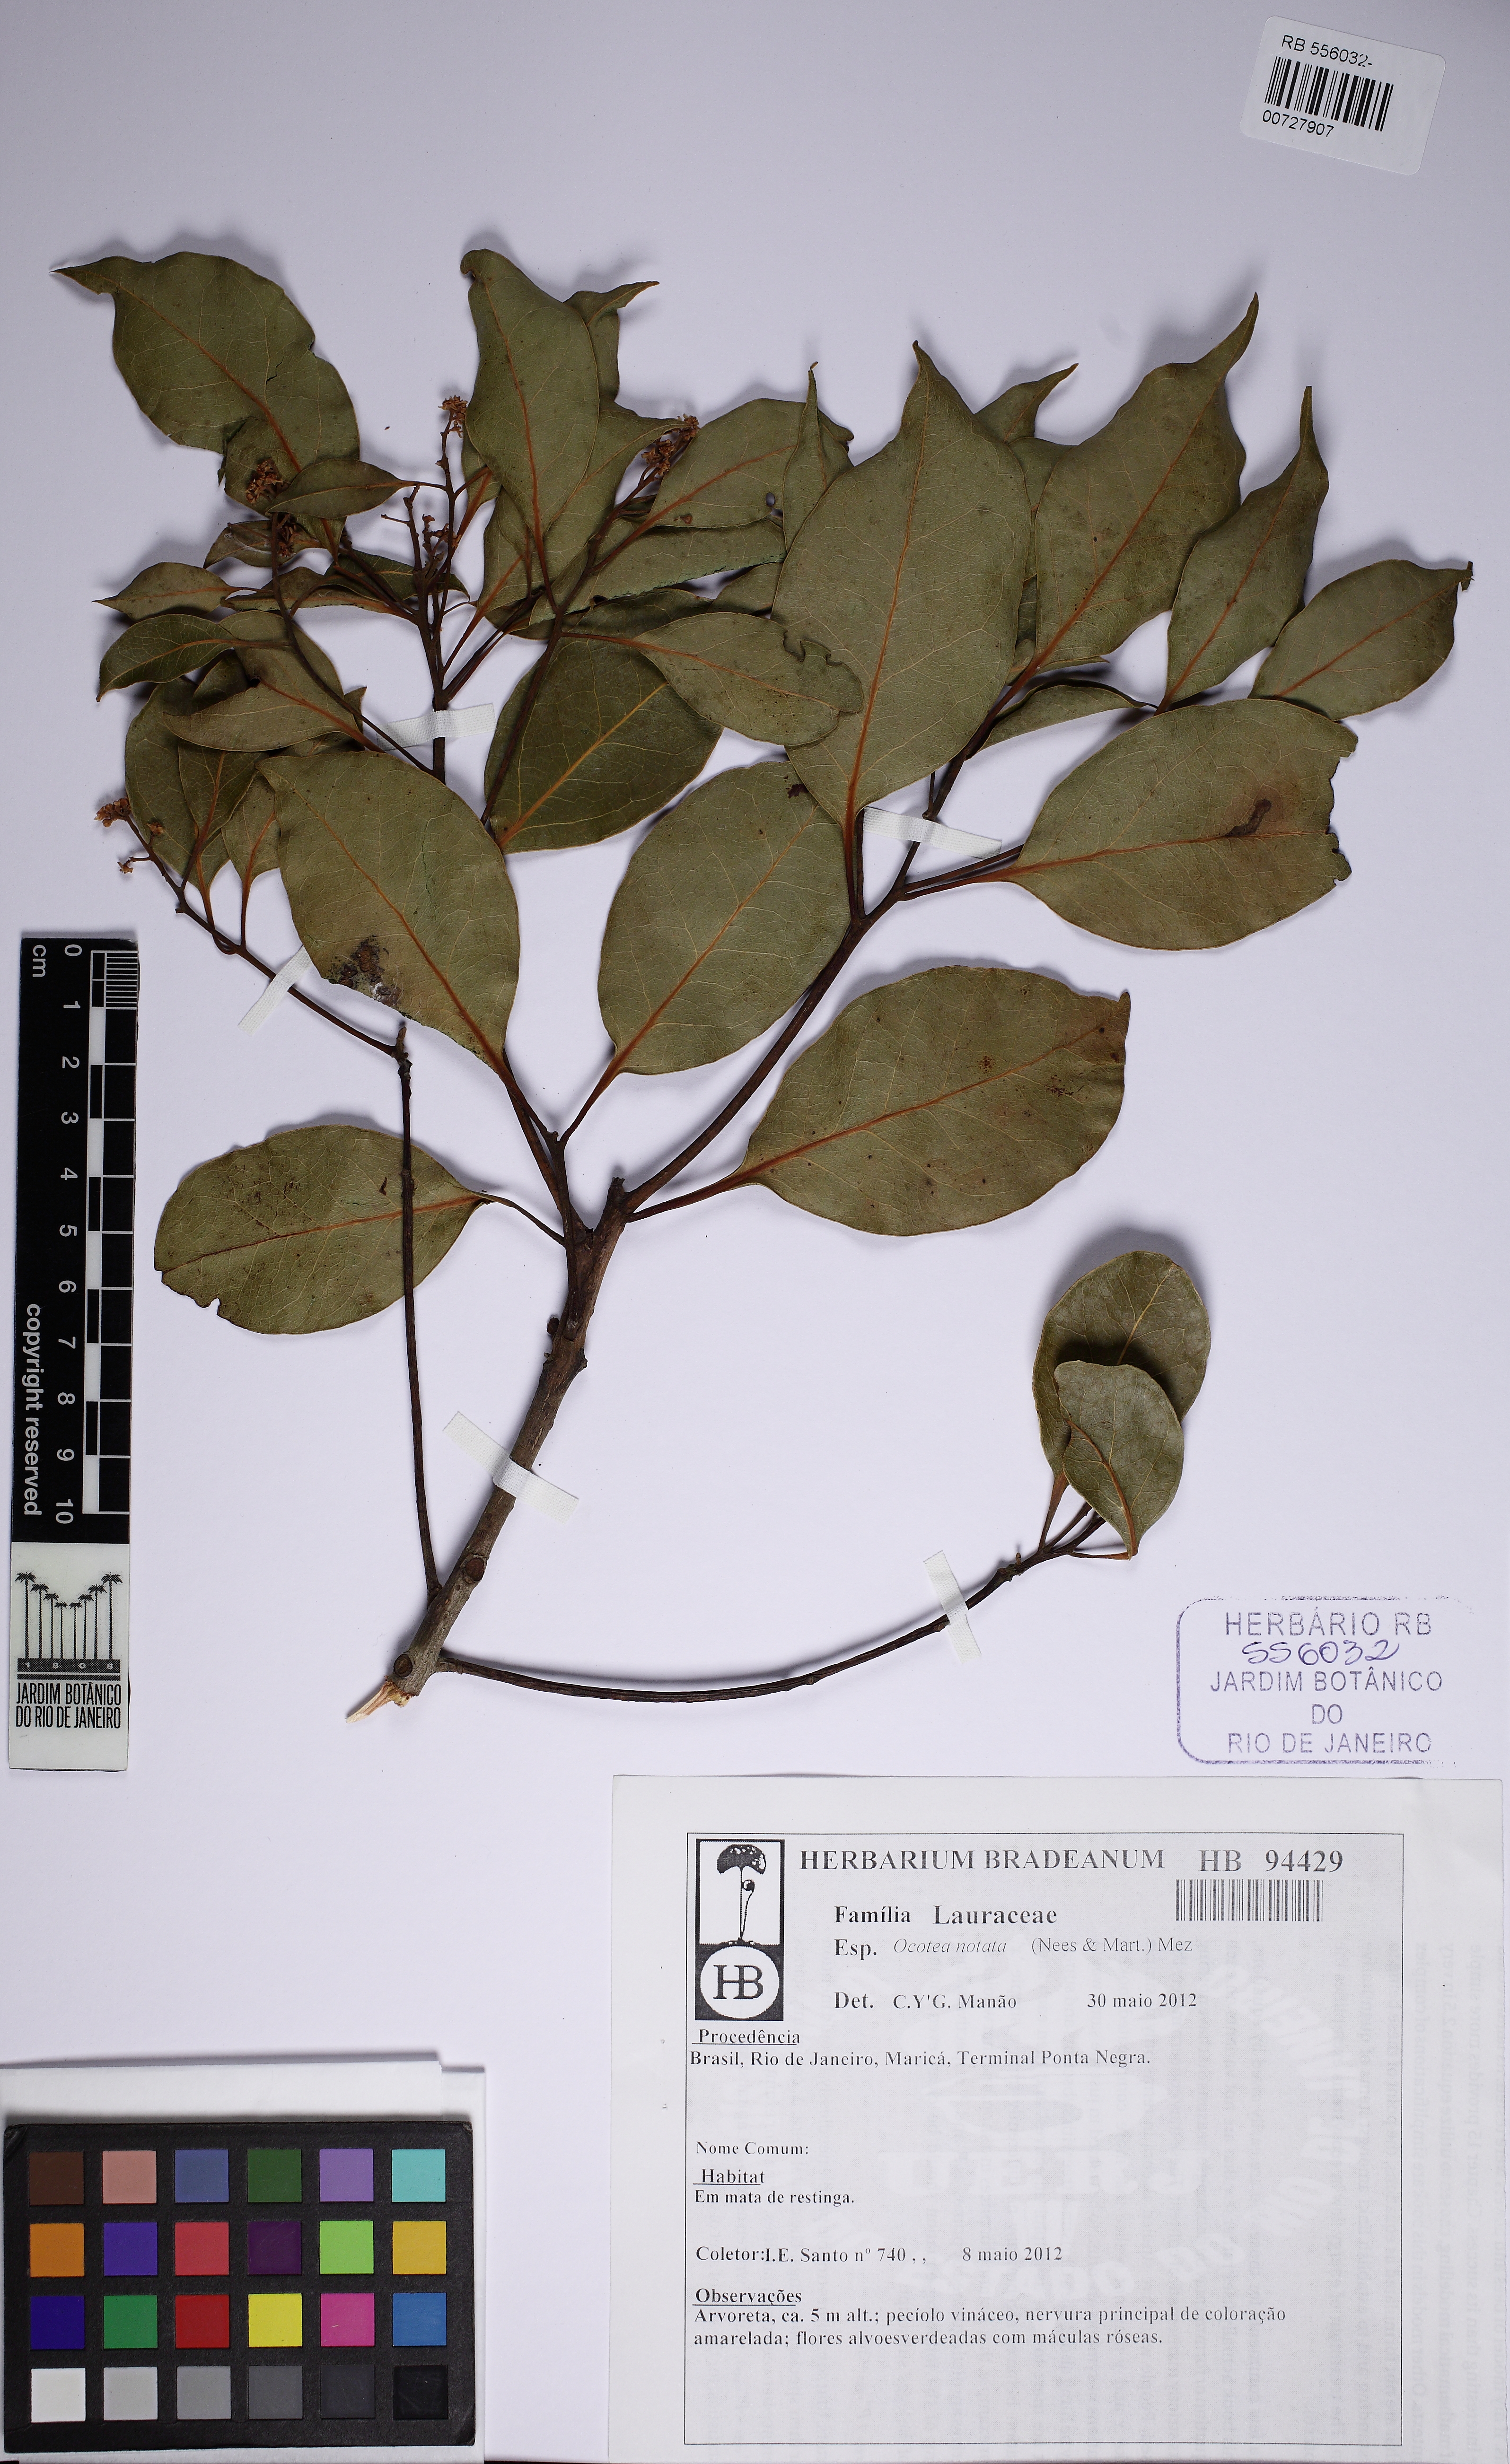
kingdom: Plantae
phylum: Tracheophyta
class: Magnoliopsida
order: Laurales
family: Lauraceae
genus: Mespilodaphne
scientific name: Mespilodaphne notata
